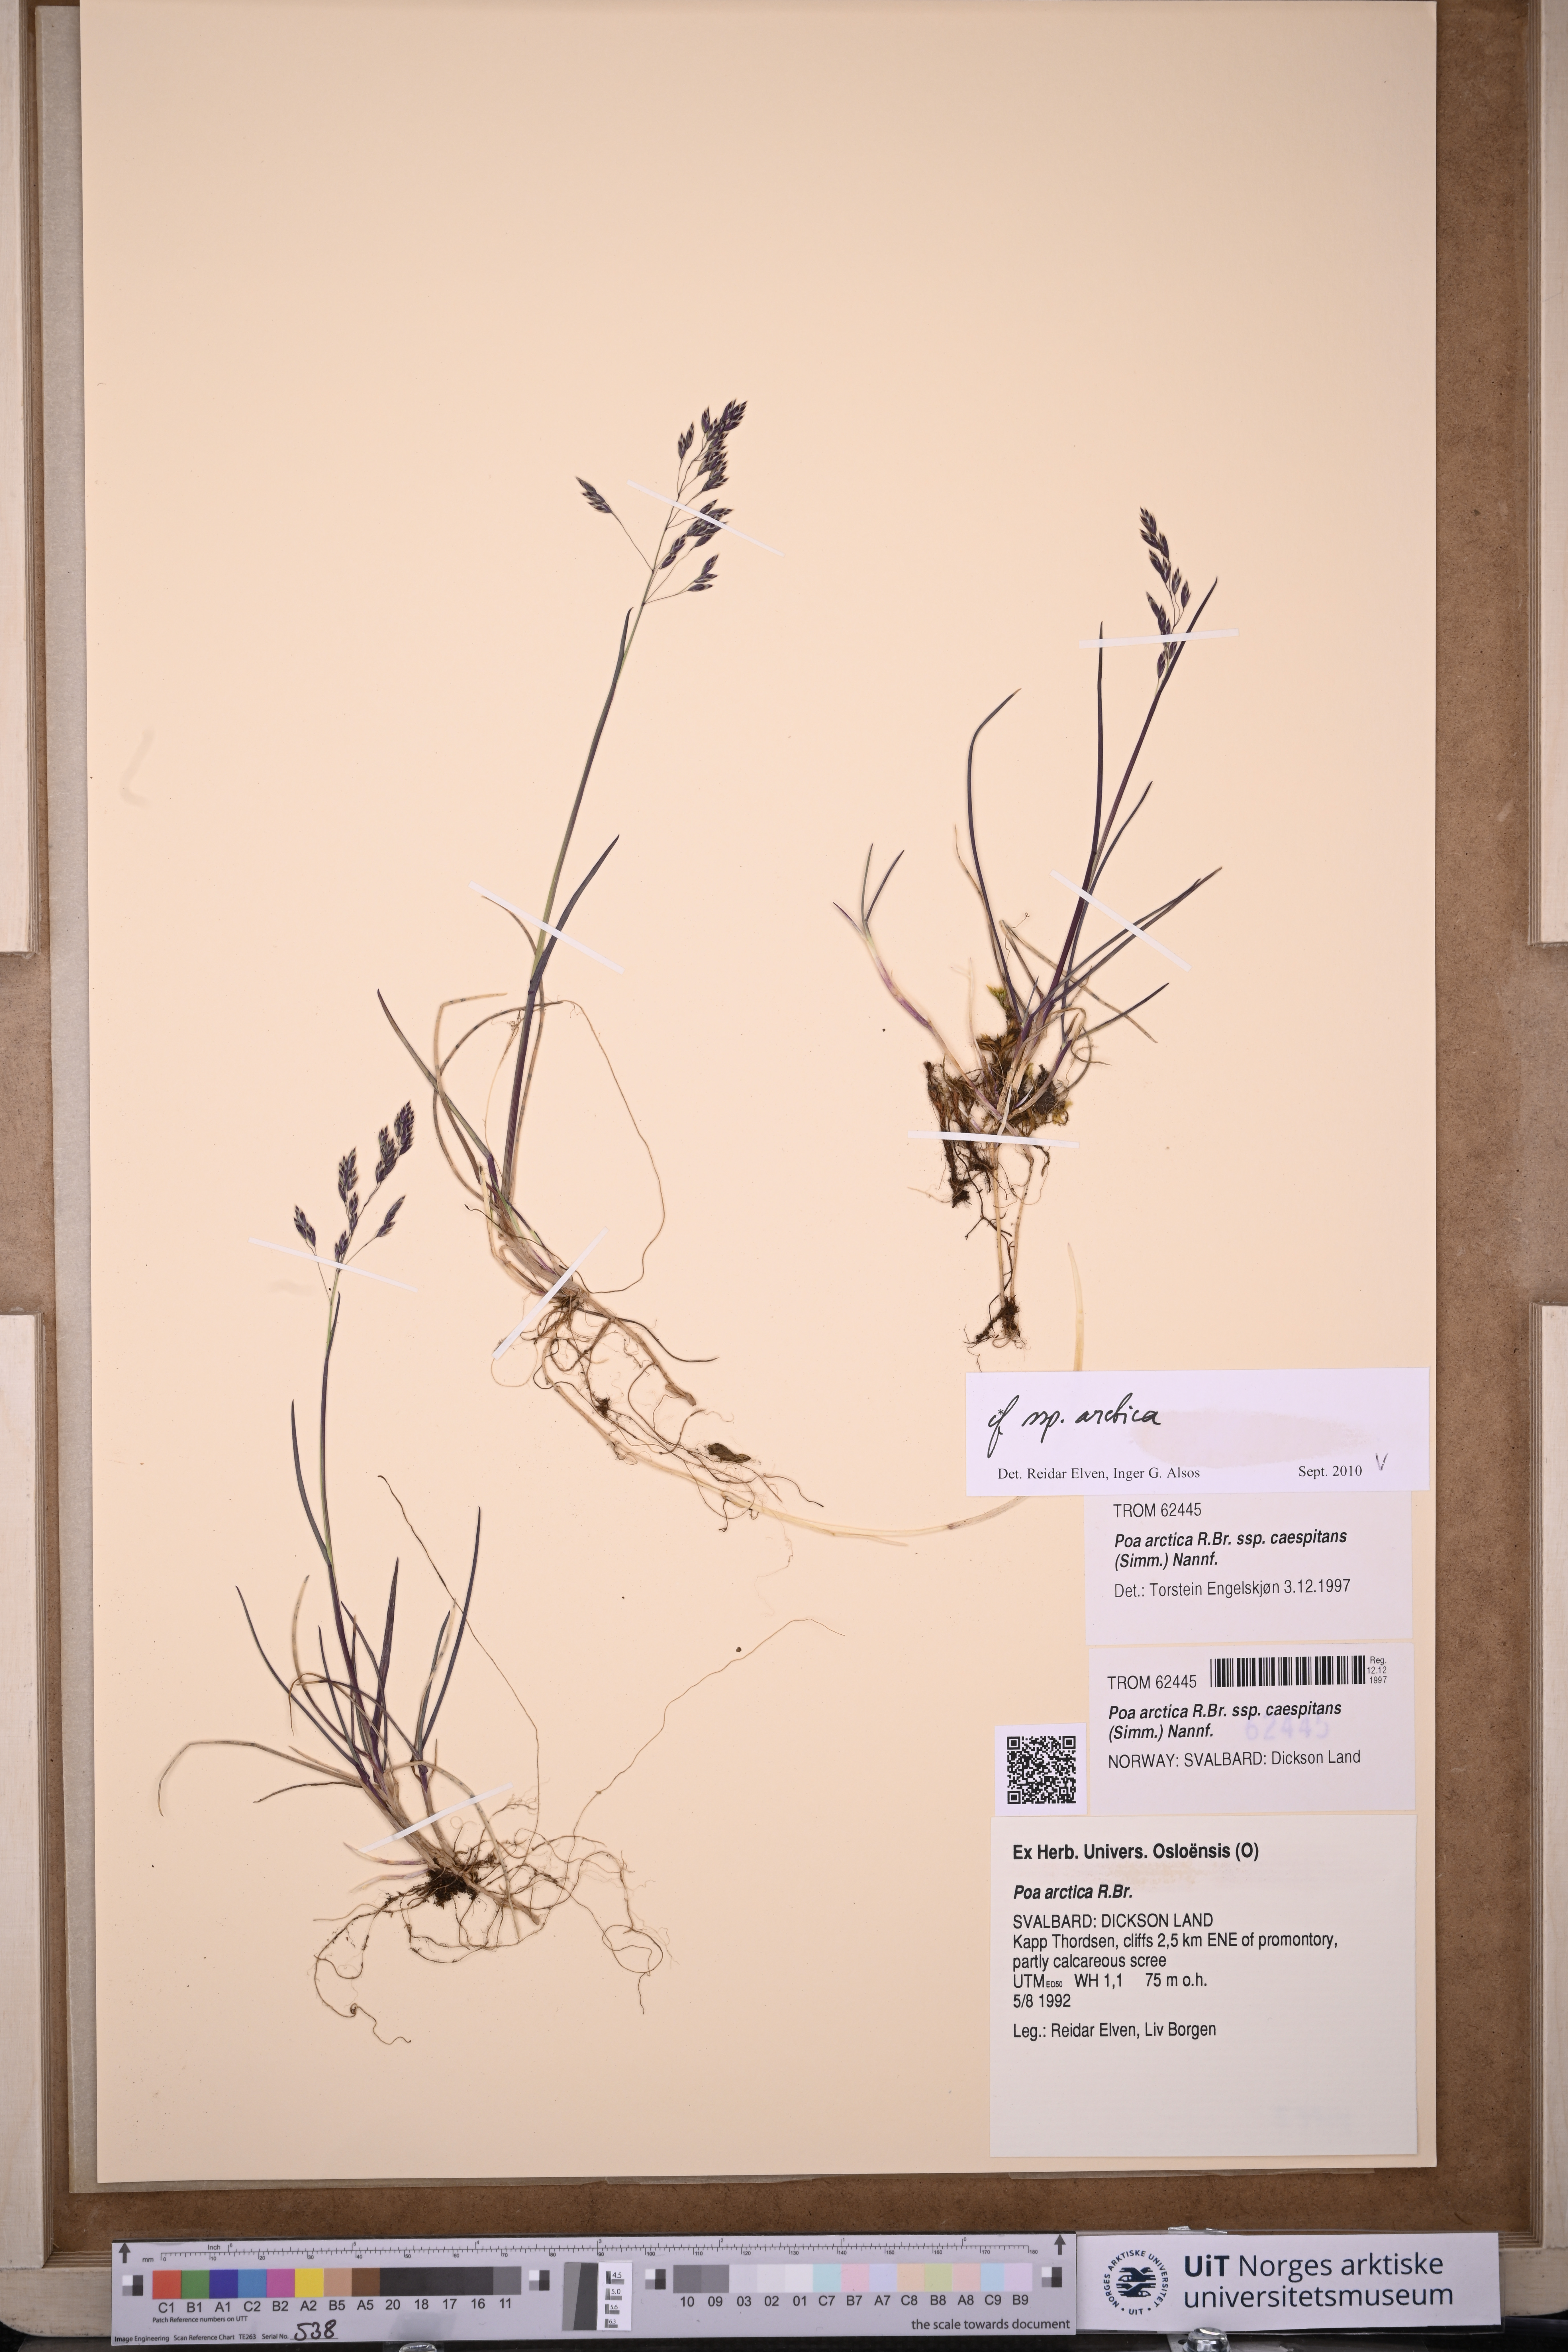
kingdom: Plantae
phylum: Tracheophyta
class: Liliopsida
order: Poales
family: Poaceae
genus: Poa
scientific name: Poa arctica
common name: Arctic bluegrass
